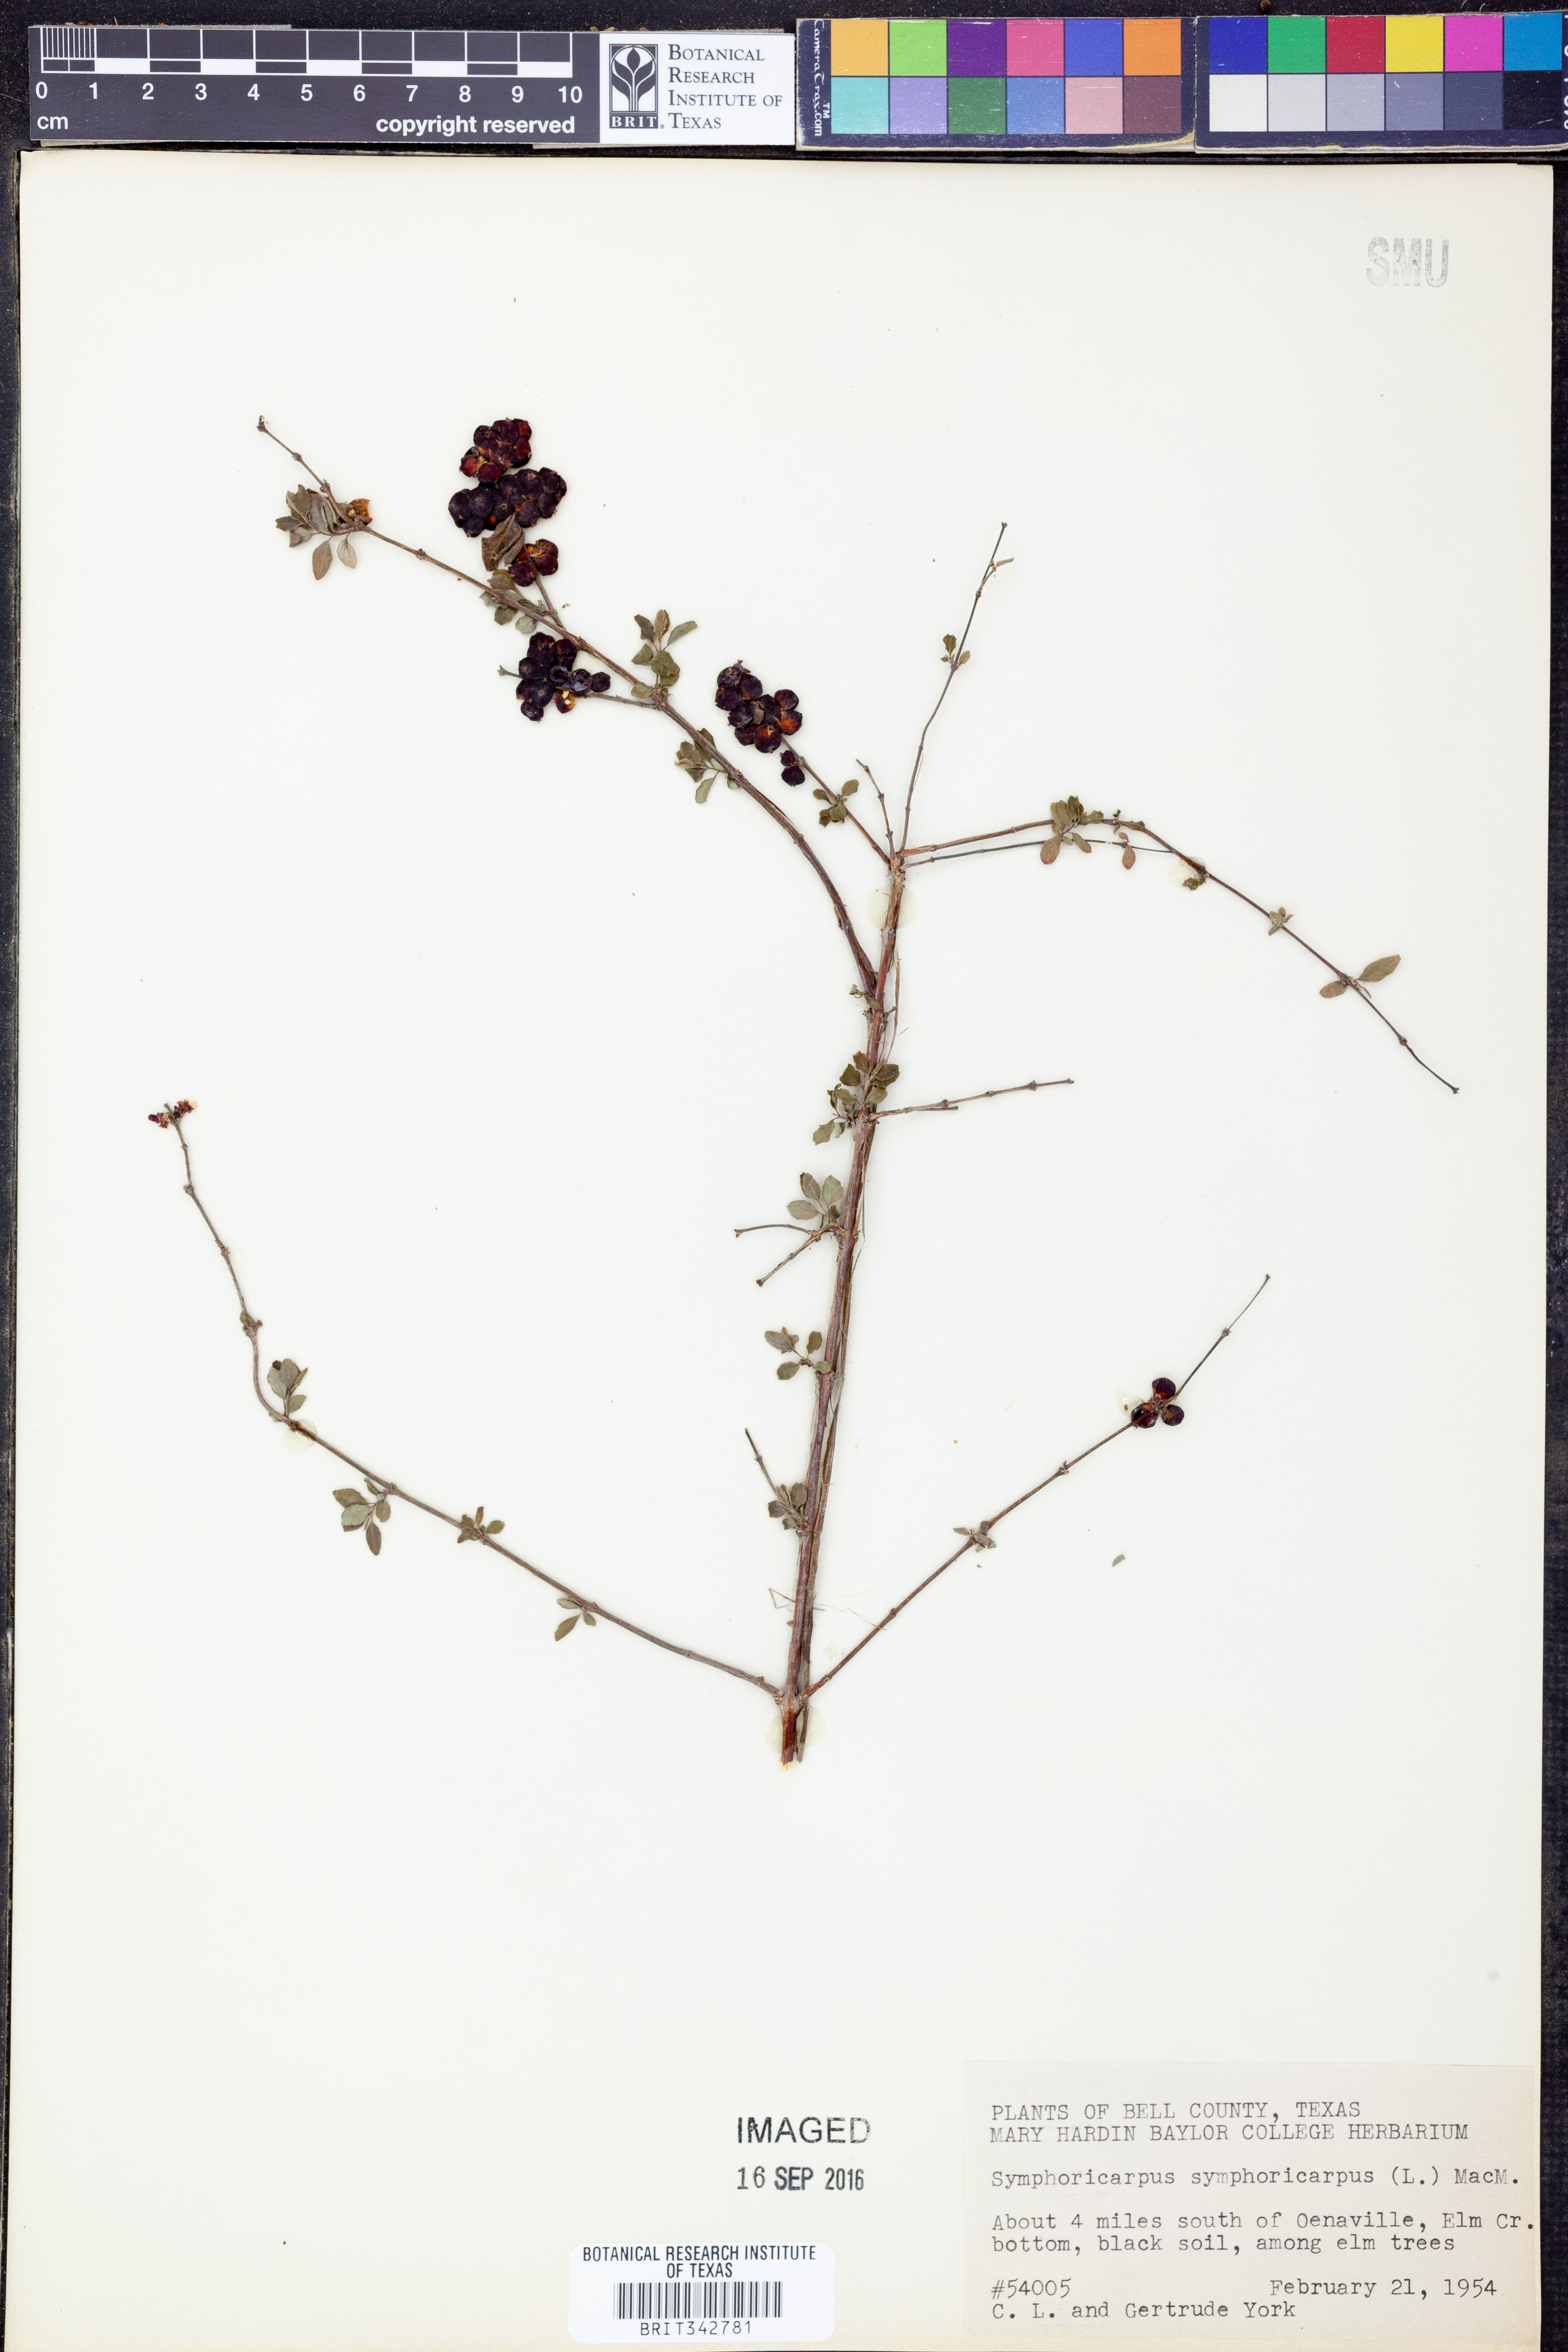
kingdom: Plantae
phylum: Tracheophyta
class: Magnoliopsida
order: Dipsacales
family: Caprifoliaceae
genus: Symphoricarpos
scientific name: Symphoricarpos orbiculatus
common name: Coralberry
